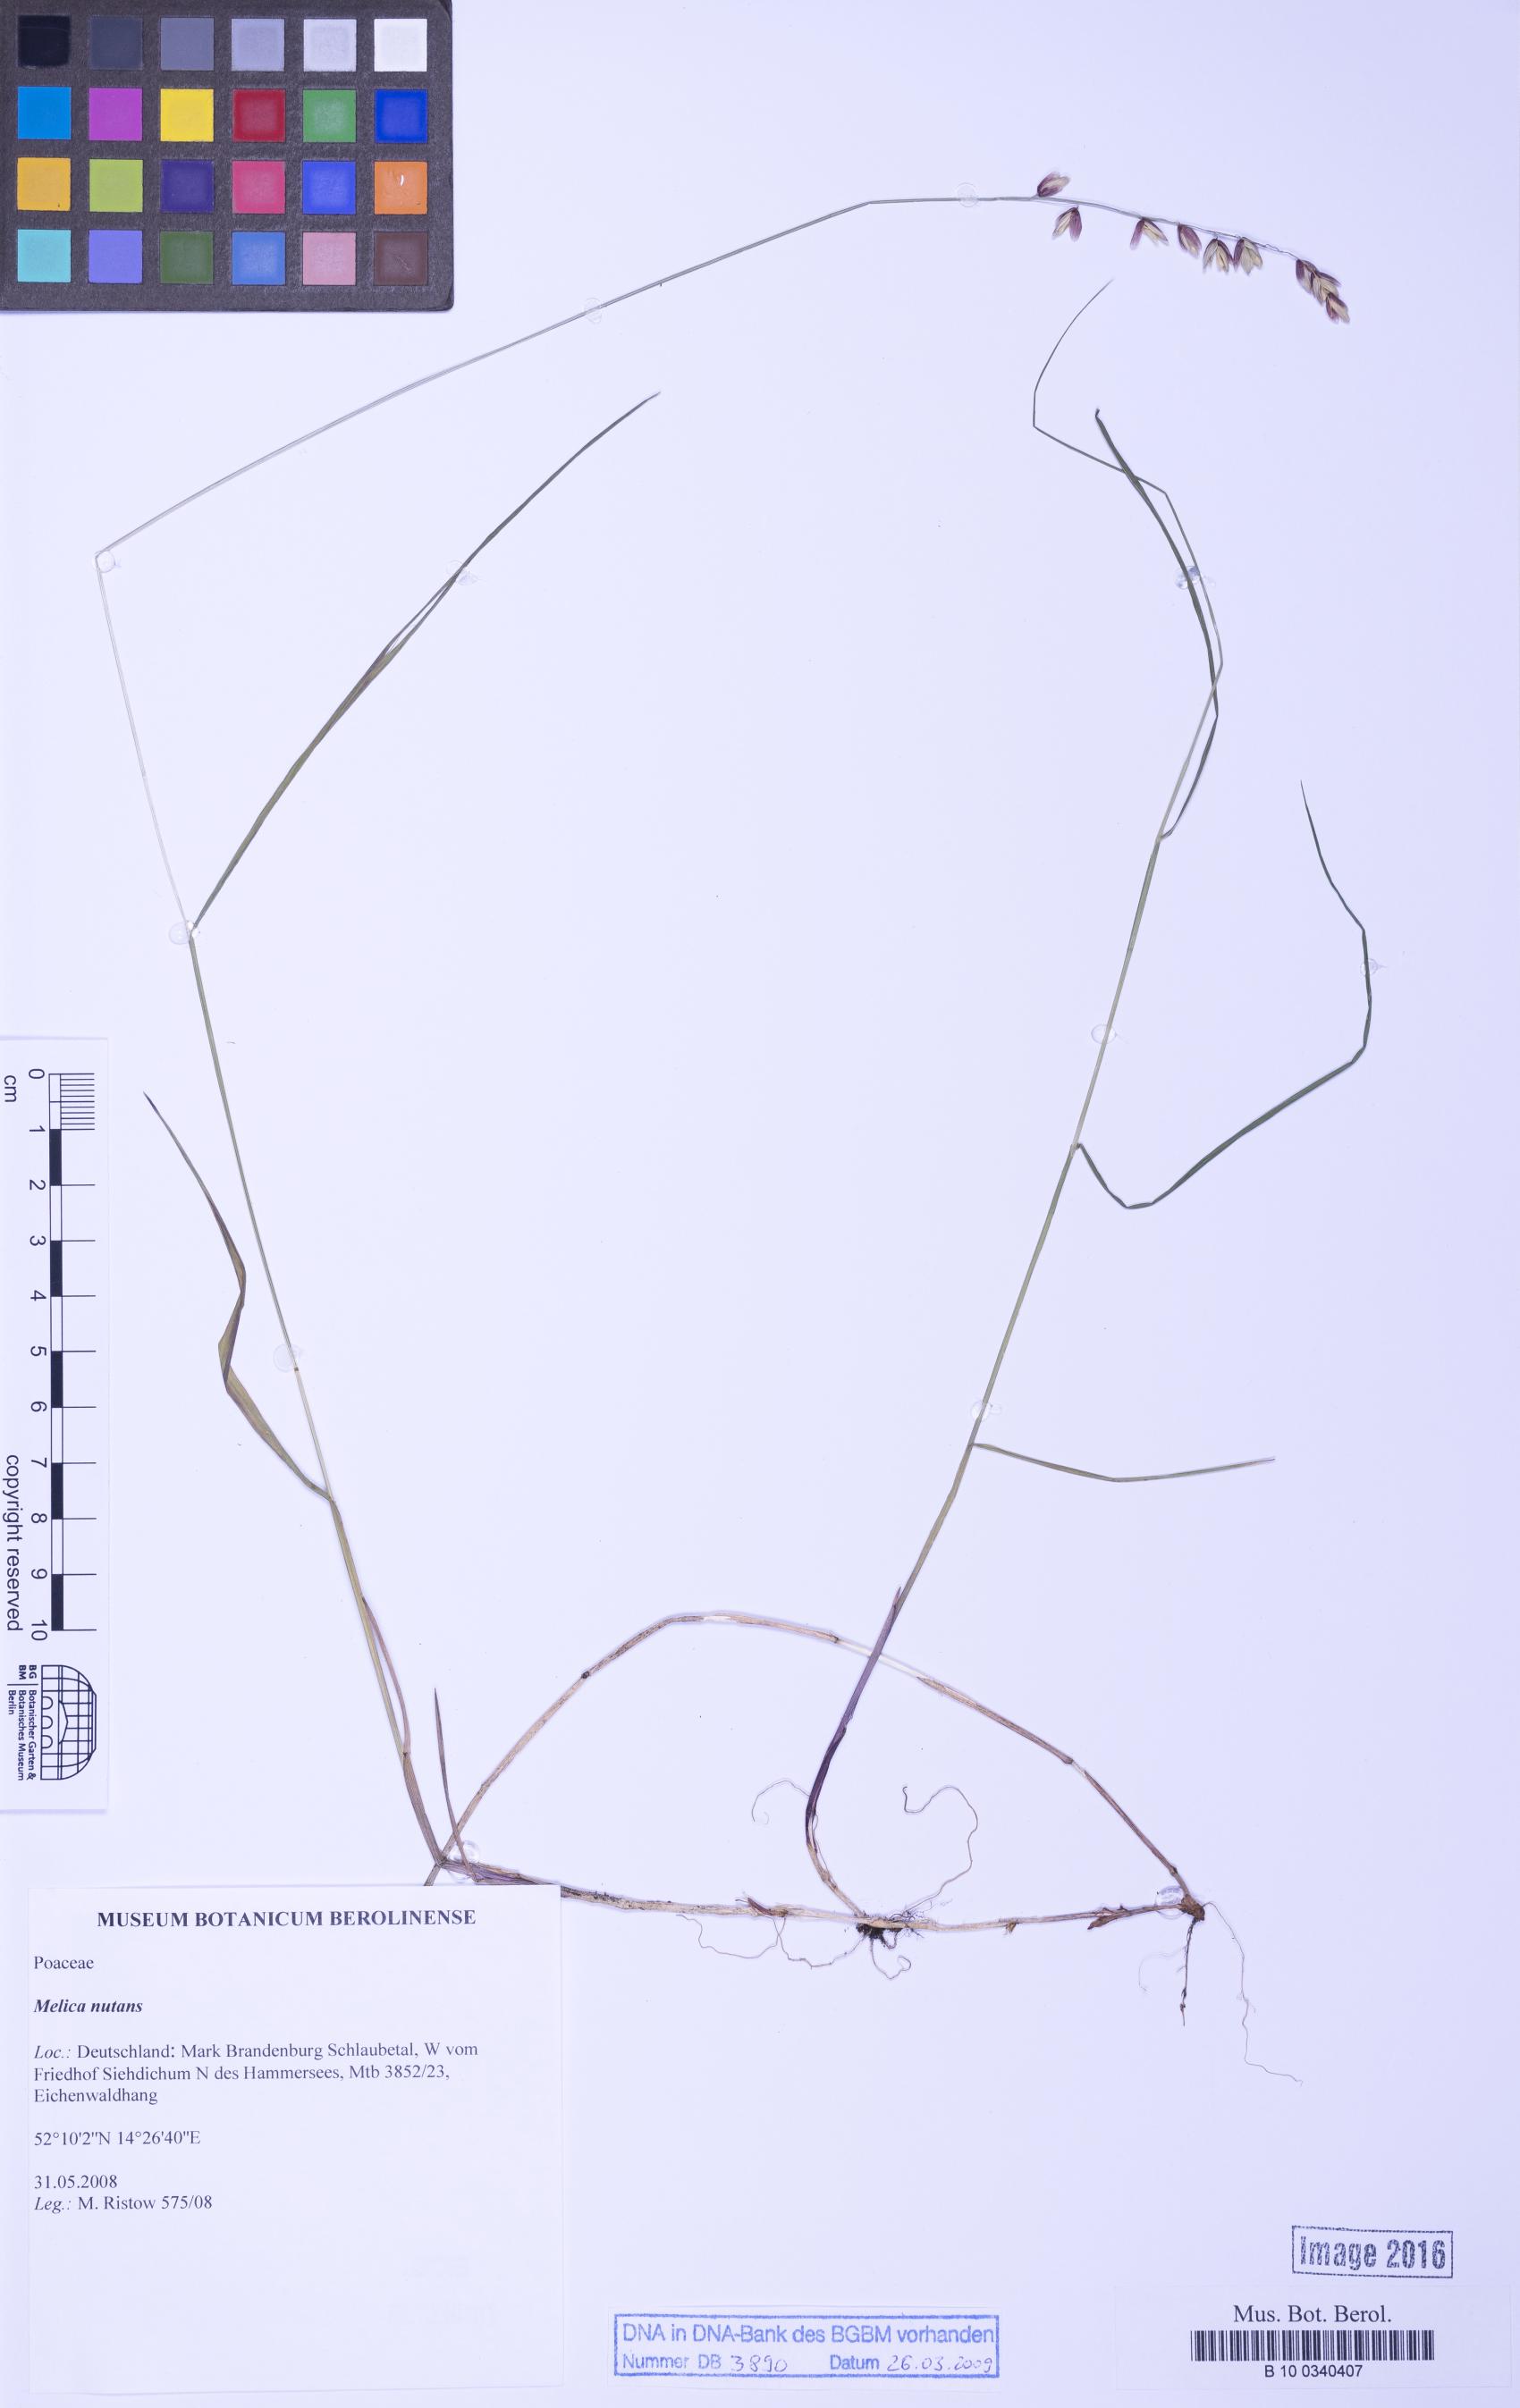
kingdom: Plantae
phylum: Tracheophyta
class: Liliopsida
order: Poales
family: Poaceae
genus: Melica
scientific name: Melica nutans
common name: Mountain melick
